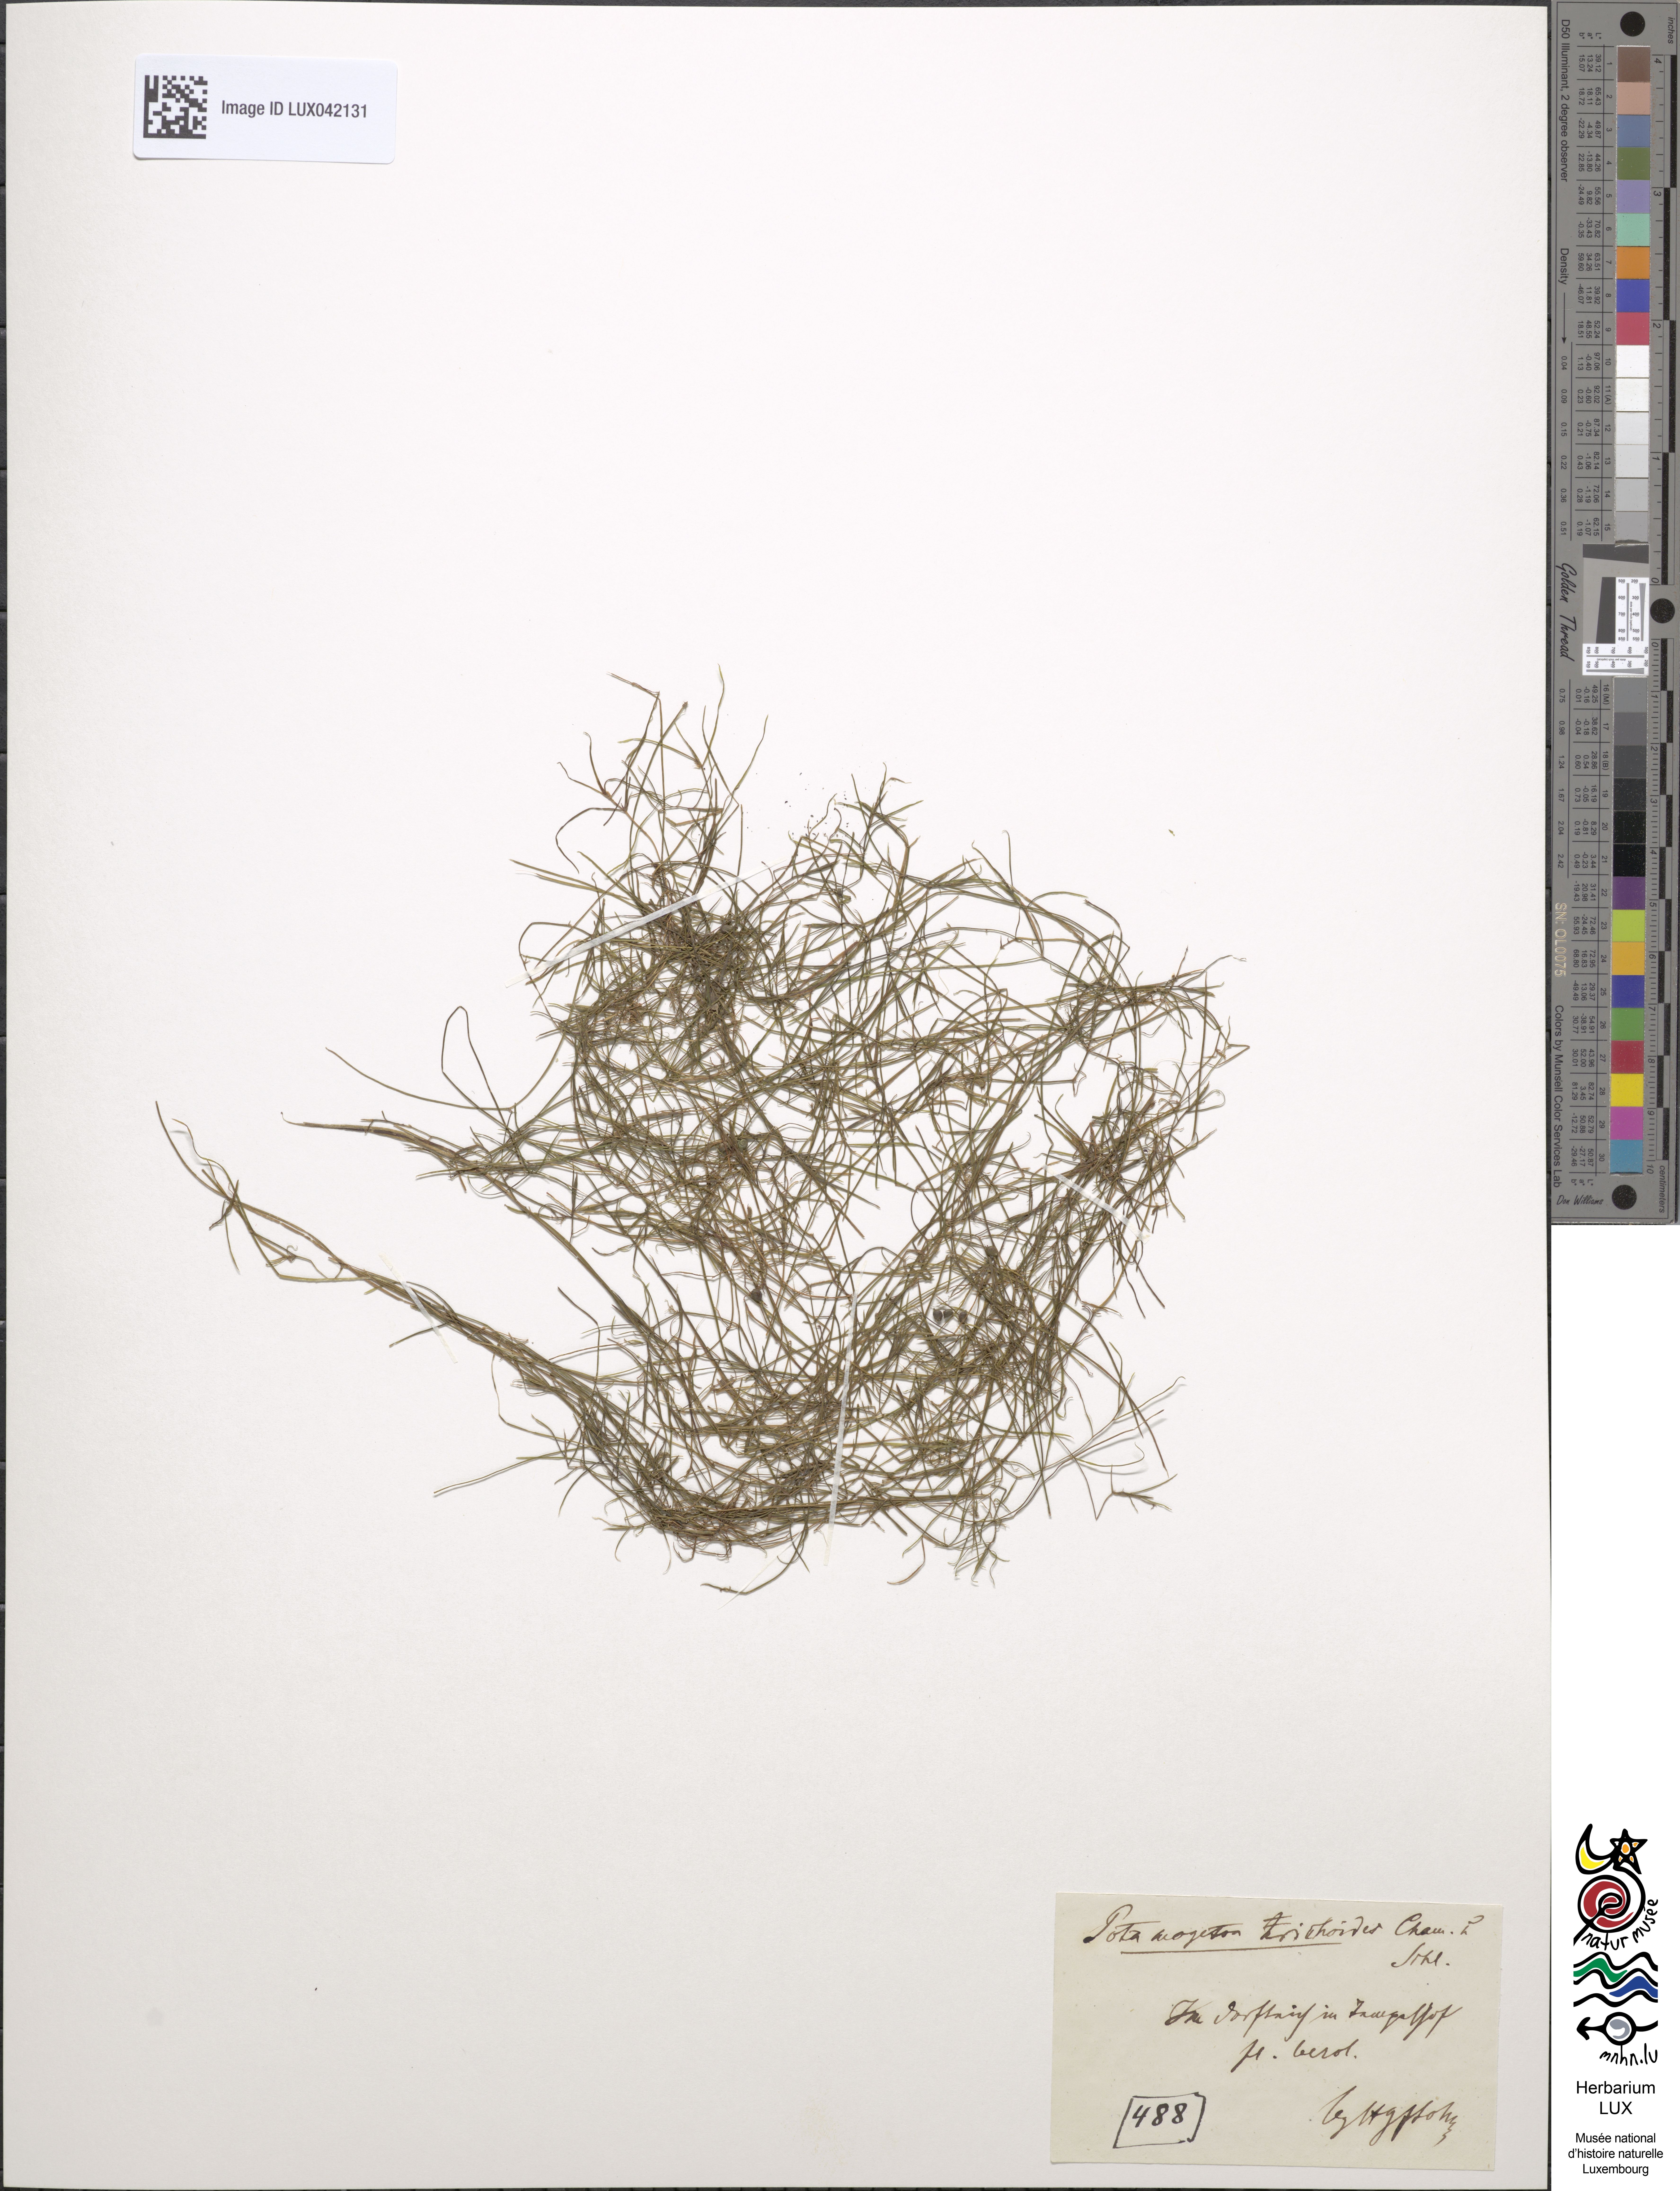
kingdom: Plantae
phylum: Tracheophyta
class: Liliopsida
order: Alismatales
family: Potamogetonaceae
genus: Potamogeton
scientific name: Potamogeton trichoides
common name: Hairlike pondweed
